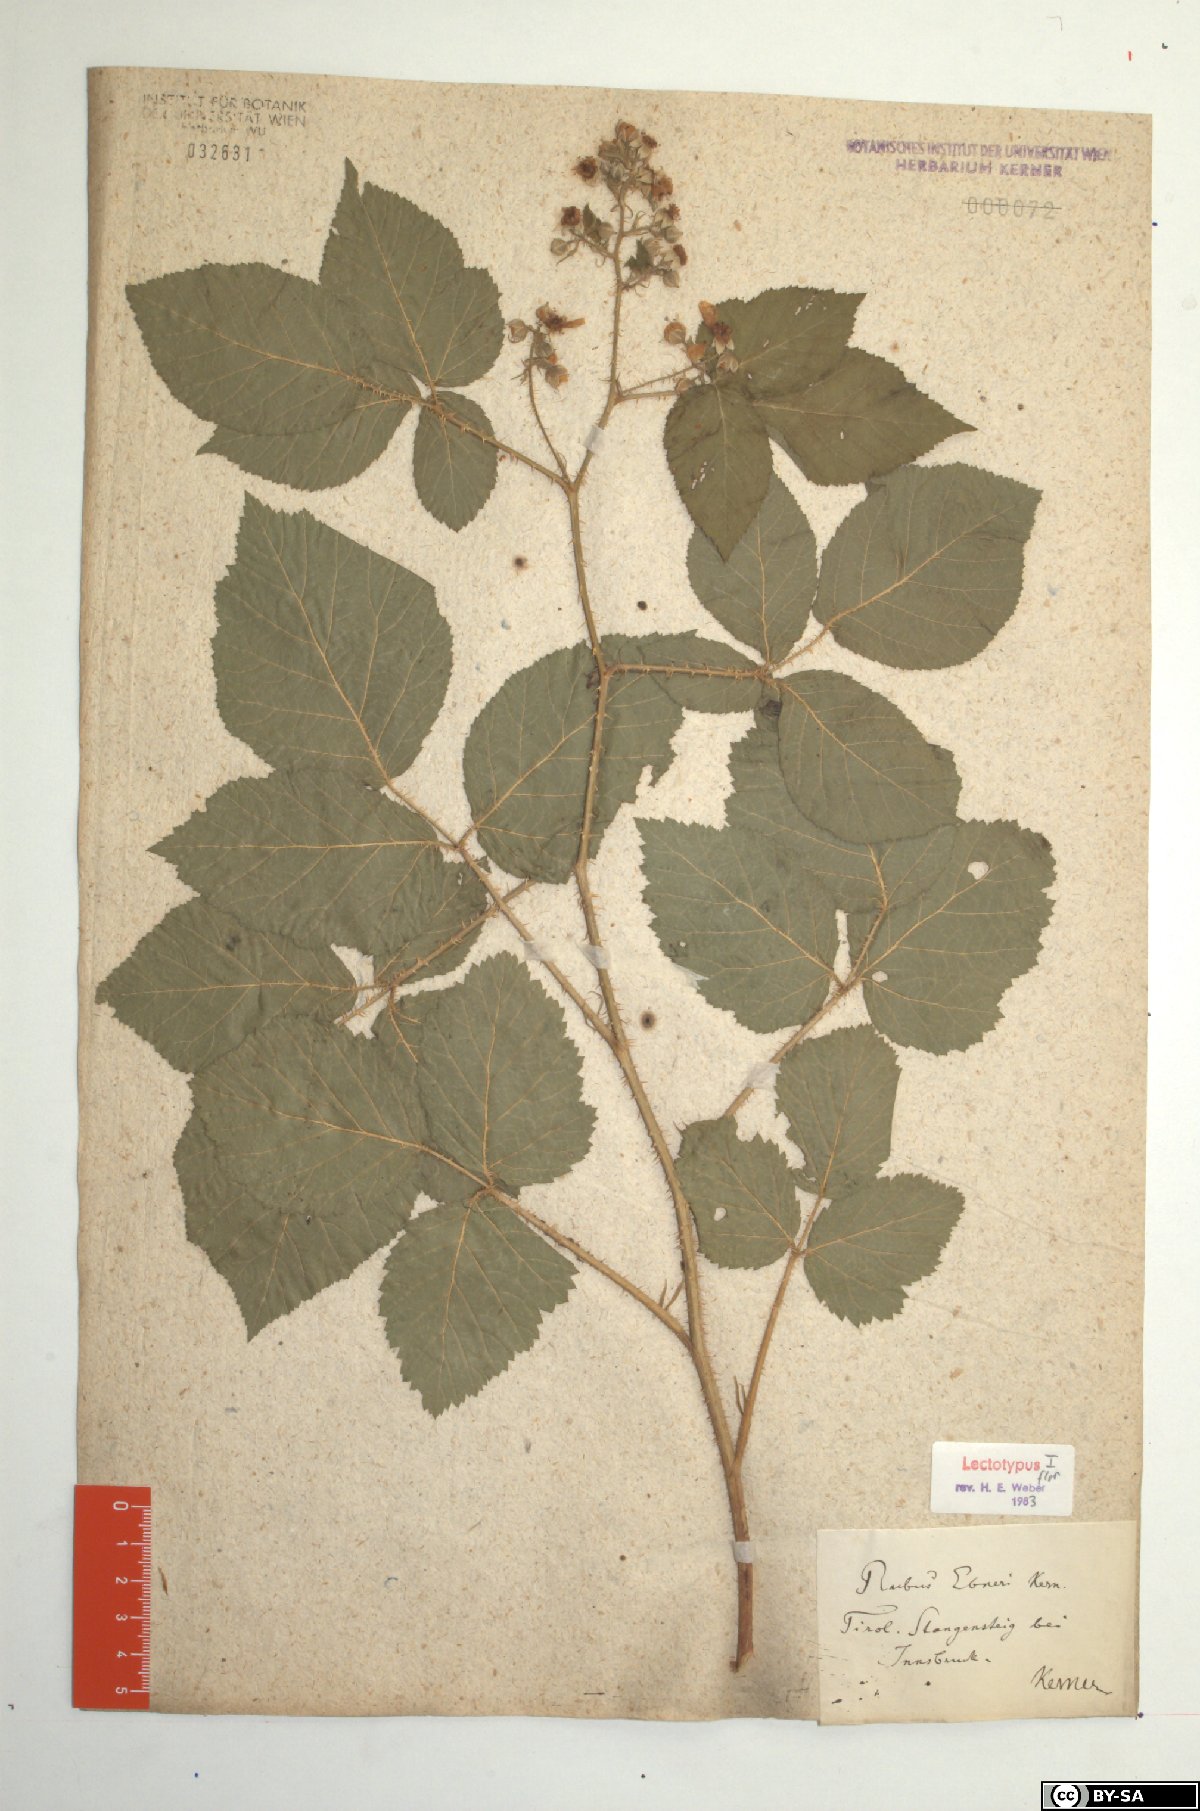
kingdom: Plantae
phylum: Tracheophyta
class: Magnoliopsida
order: Rosales
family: Rosaceae
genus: Rubus
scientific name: Rubus ebneri
